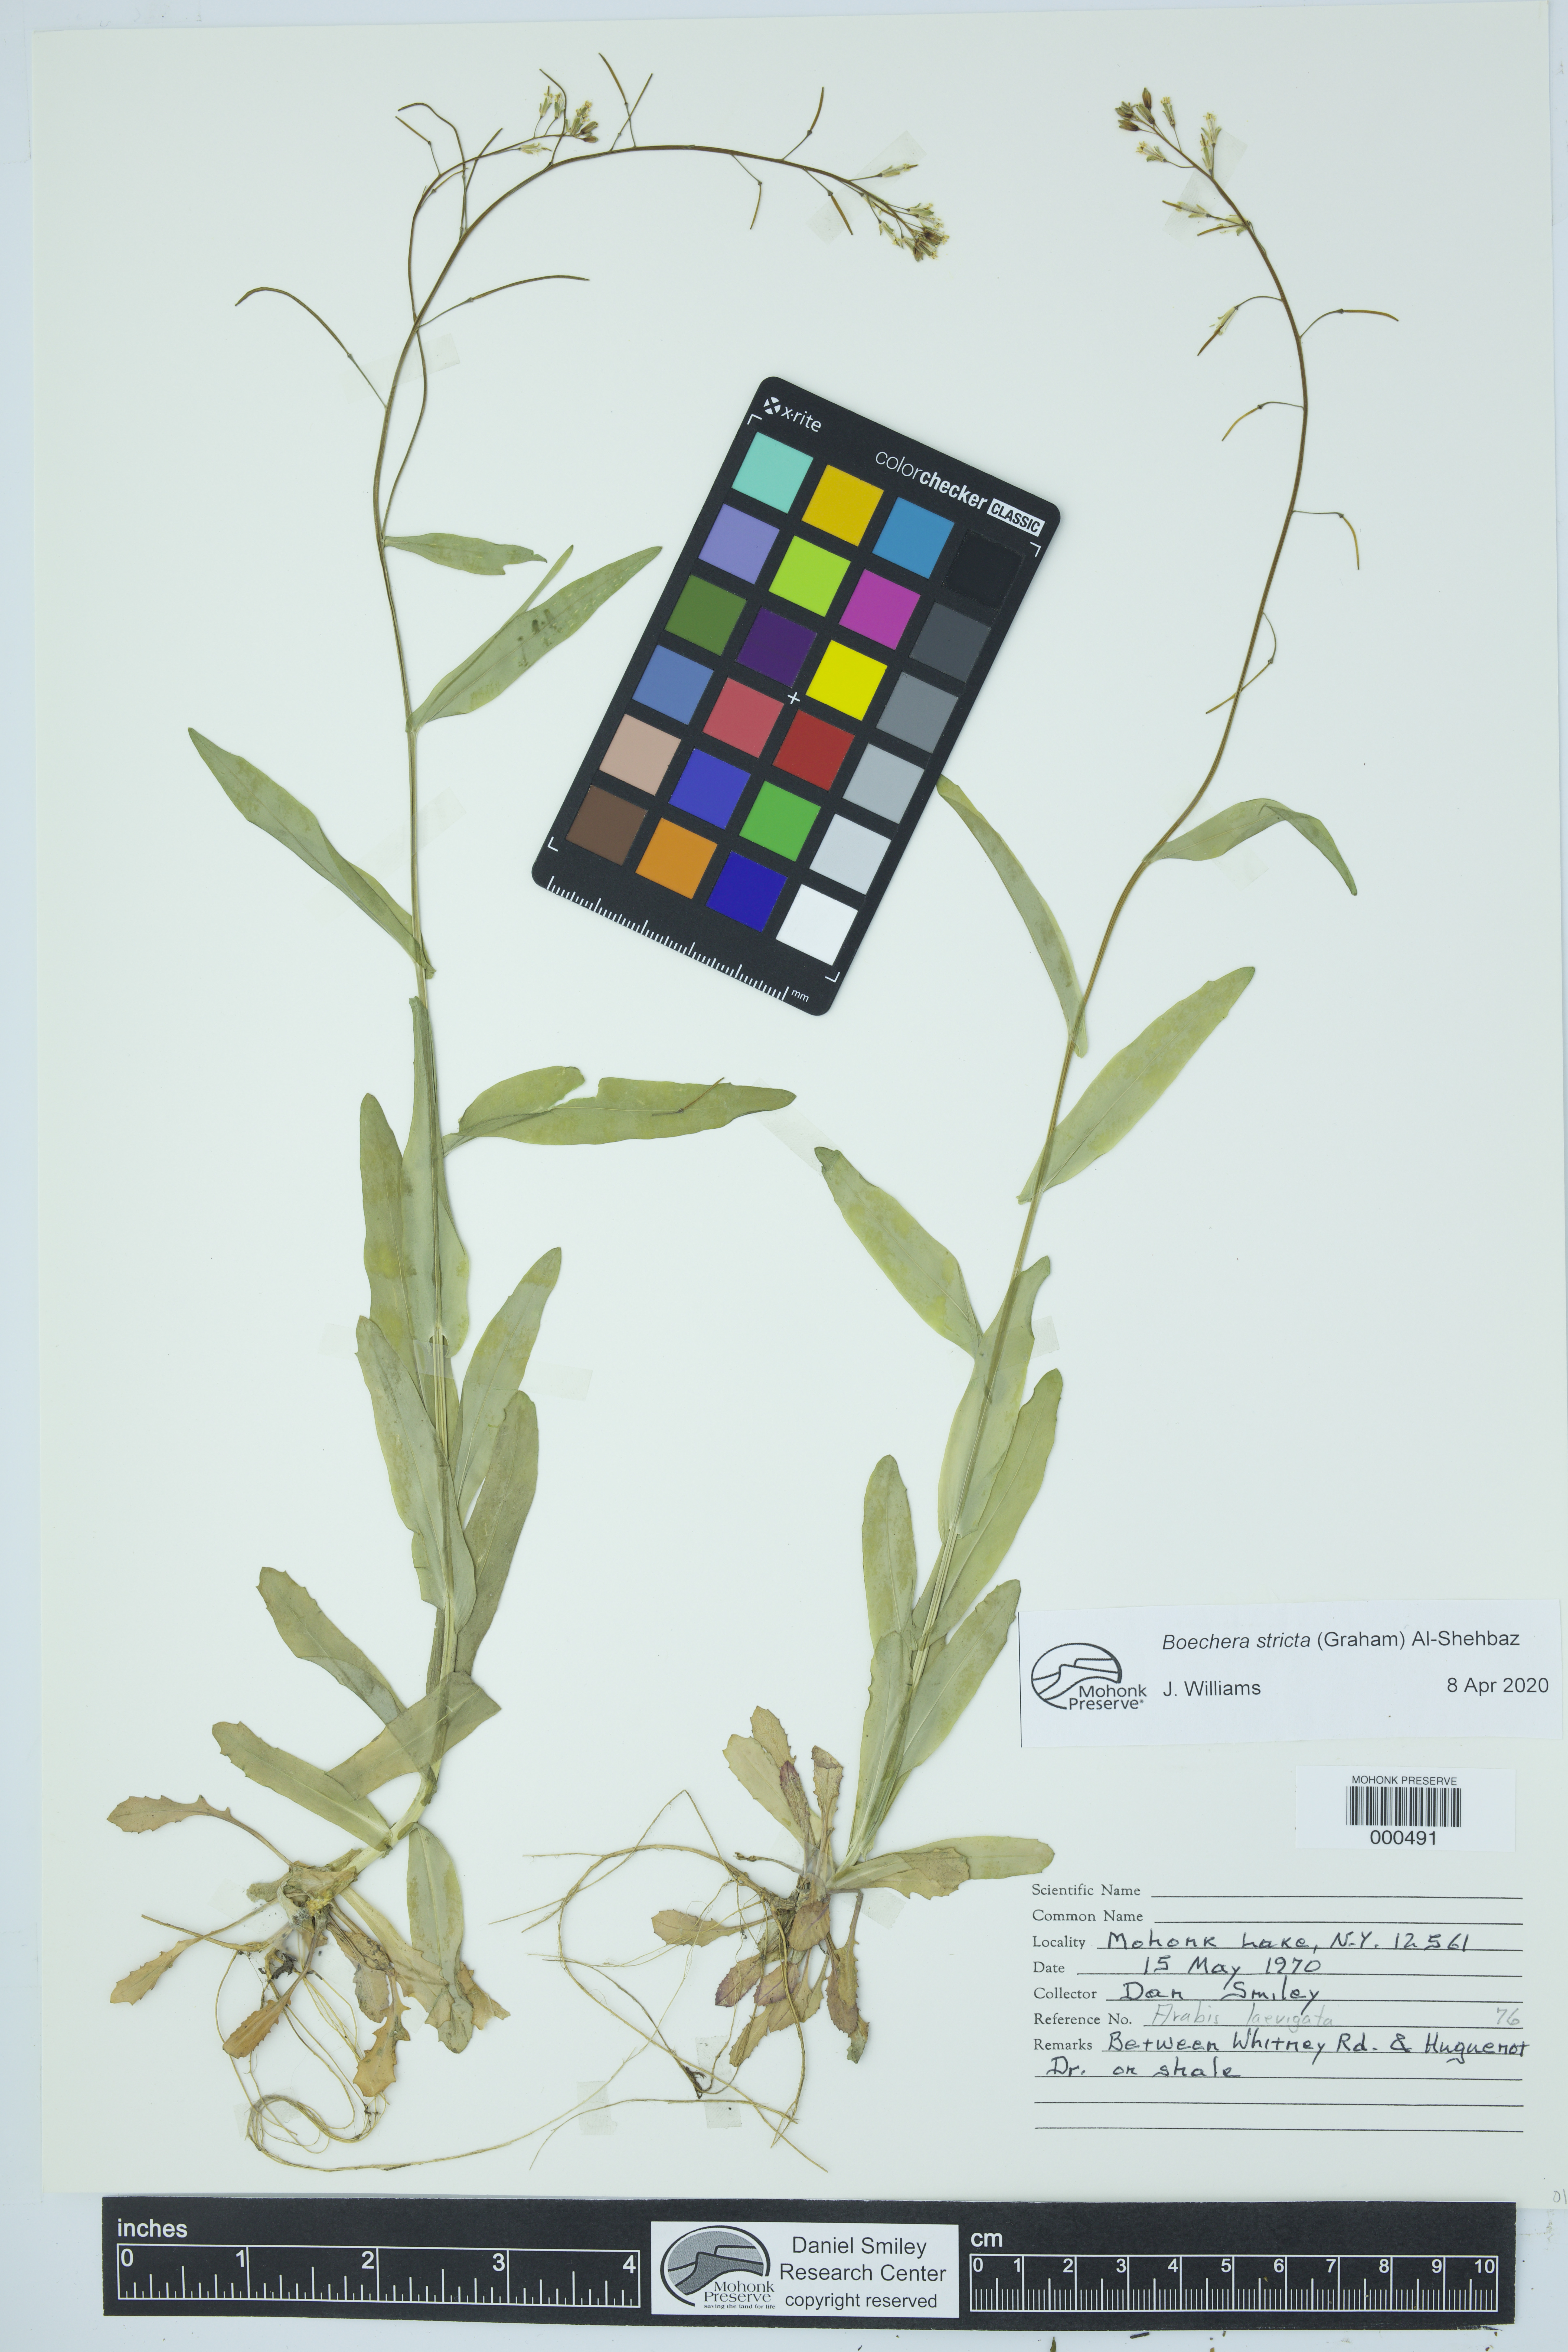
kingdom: Plantae
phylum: Tracheophyta
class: Magnoliopsida
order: Brassicales
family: Brassicaceae
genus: Boechera
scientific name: Boechera stricta
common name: Canadian rockcress
